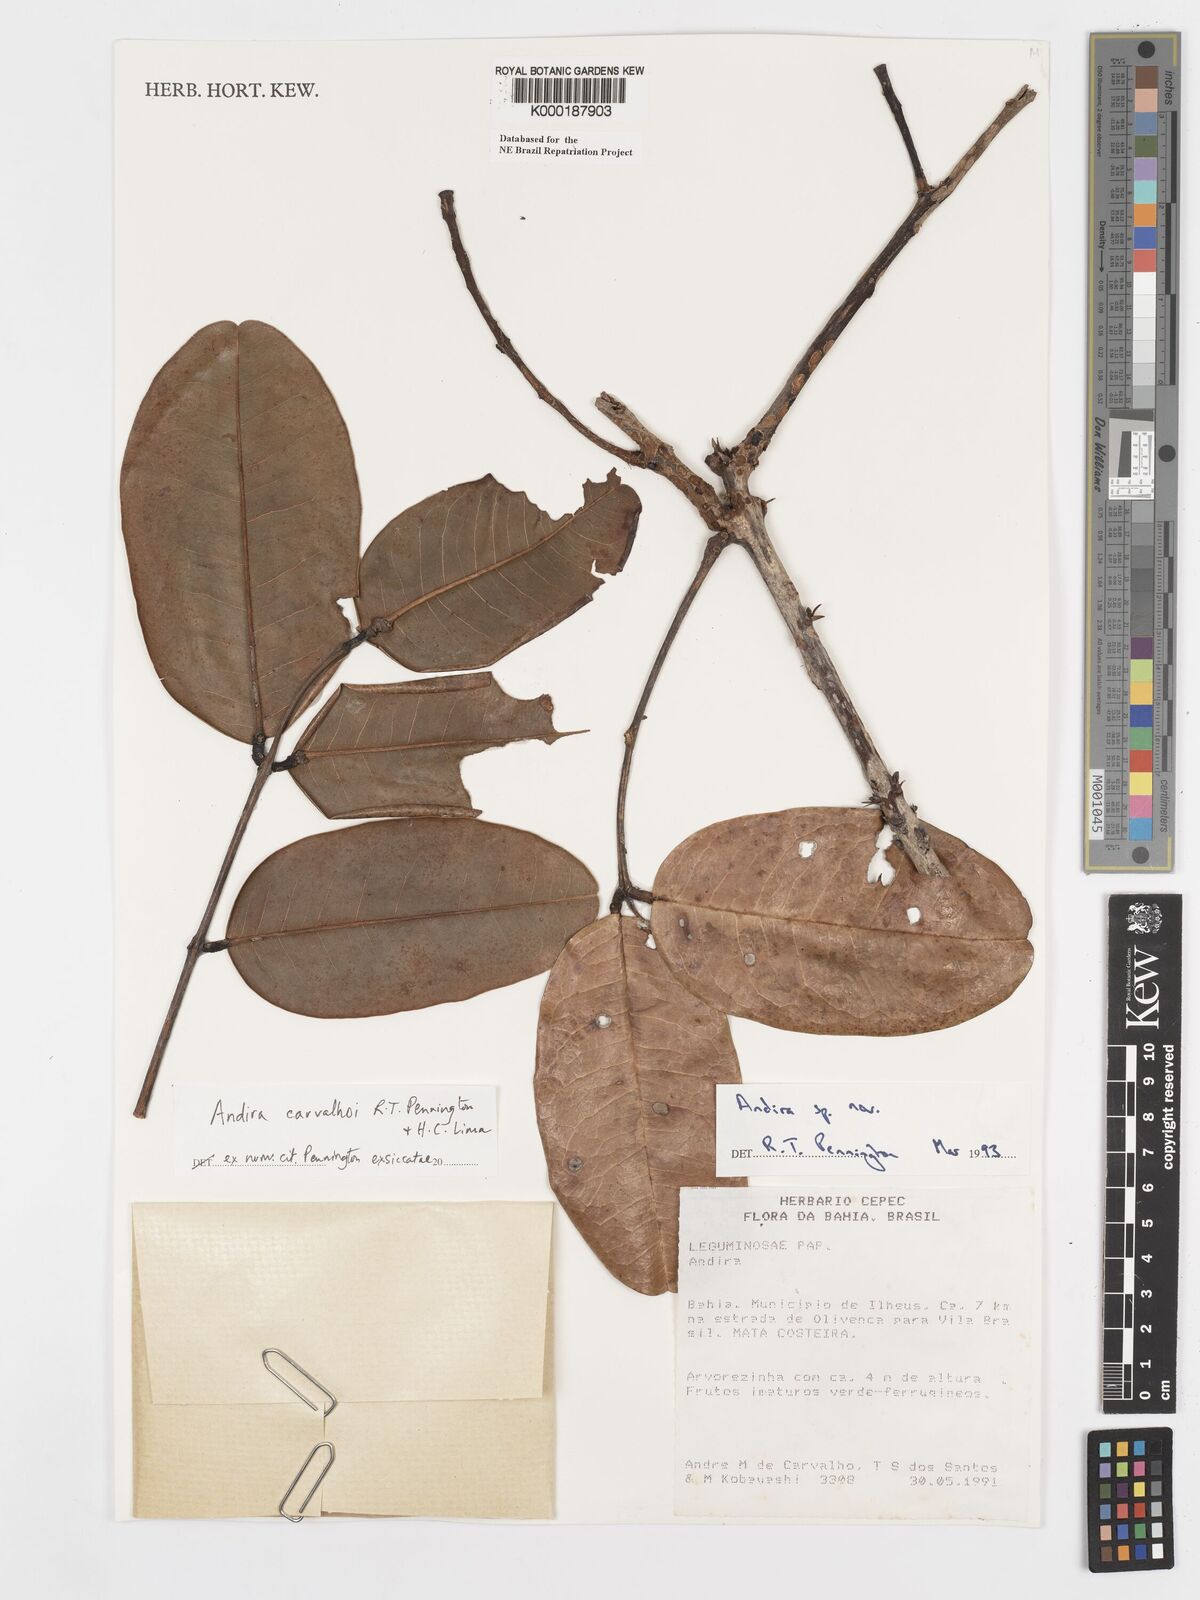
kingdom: Plantae
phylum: Tracheophyta
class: Magnoliopsida
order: Fabales
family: Fabaceae
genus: Andira
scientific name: Andira carvalhoi
